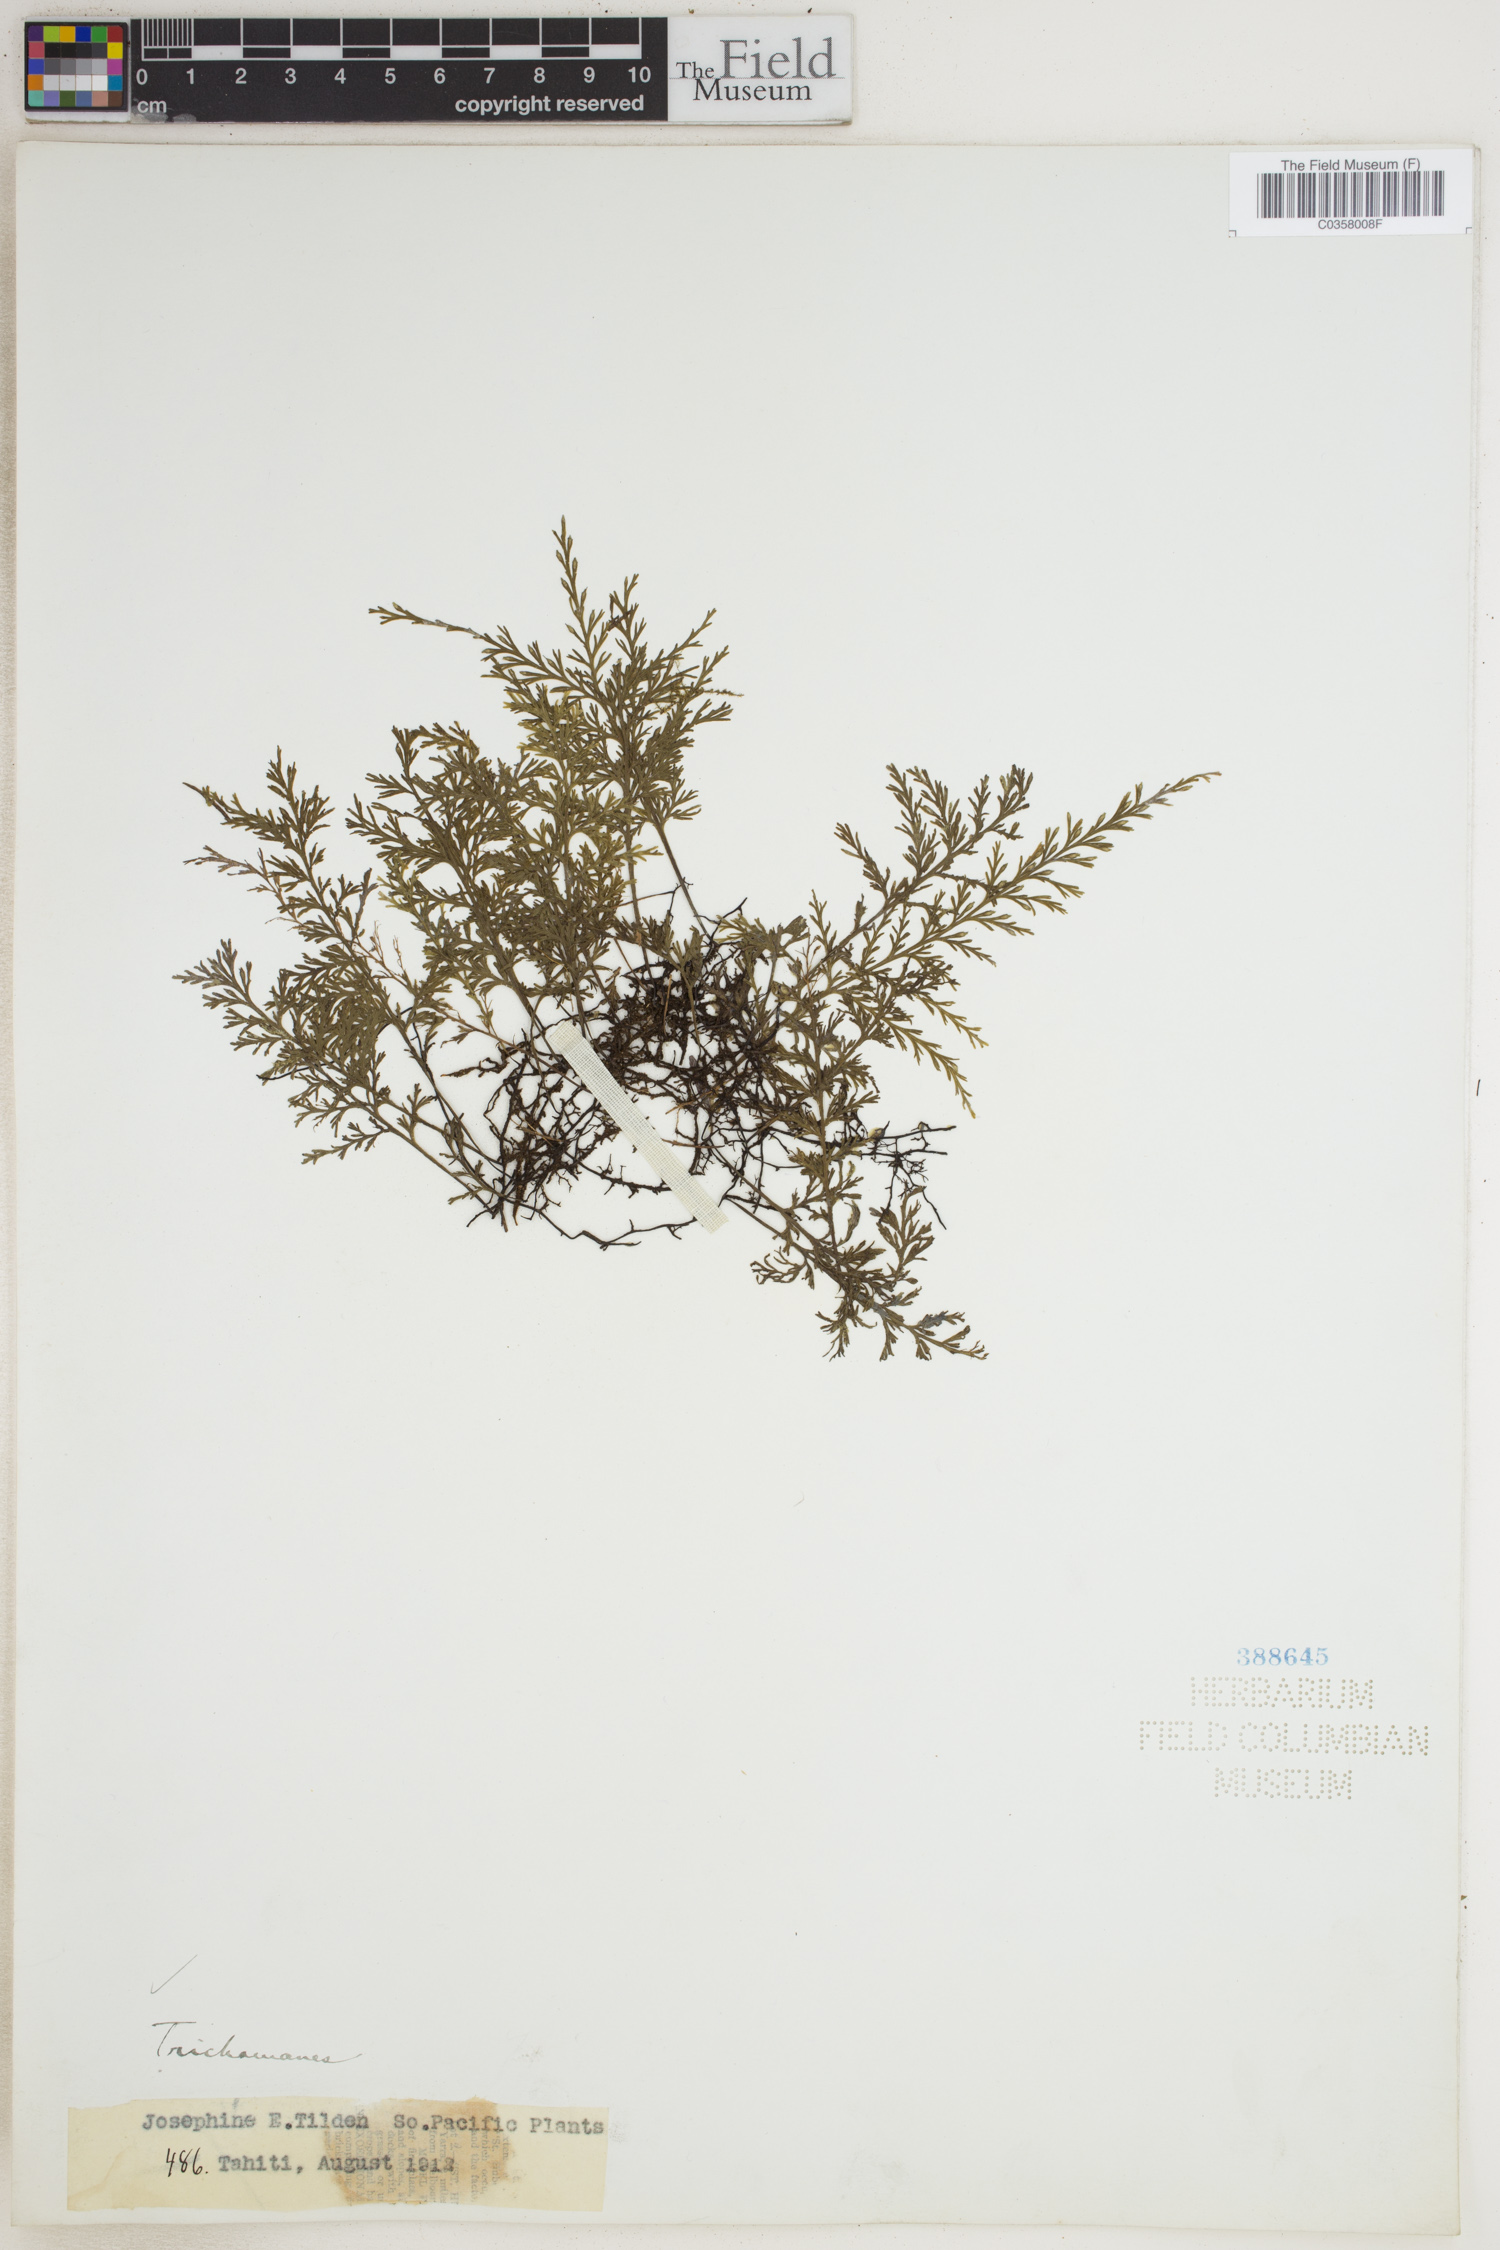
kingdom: Plantae
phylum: Tracheophyta
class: Polypodiopsida
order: Hymenophyllales
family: Hymenophyllaceae
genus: Trichomanes
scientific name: Trichomanes
